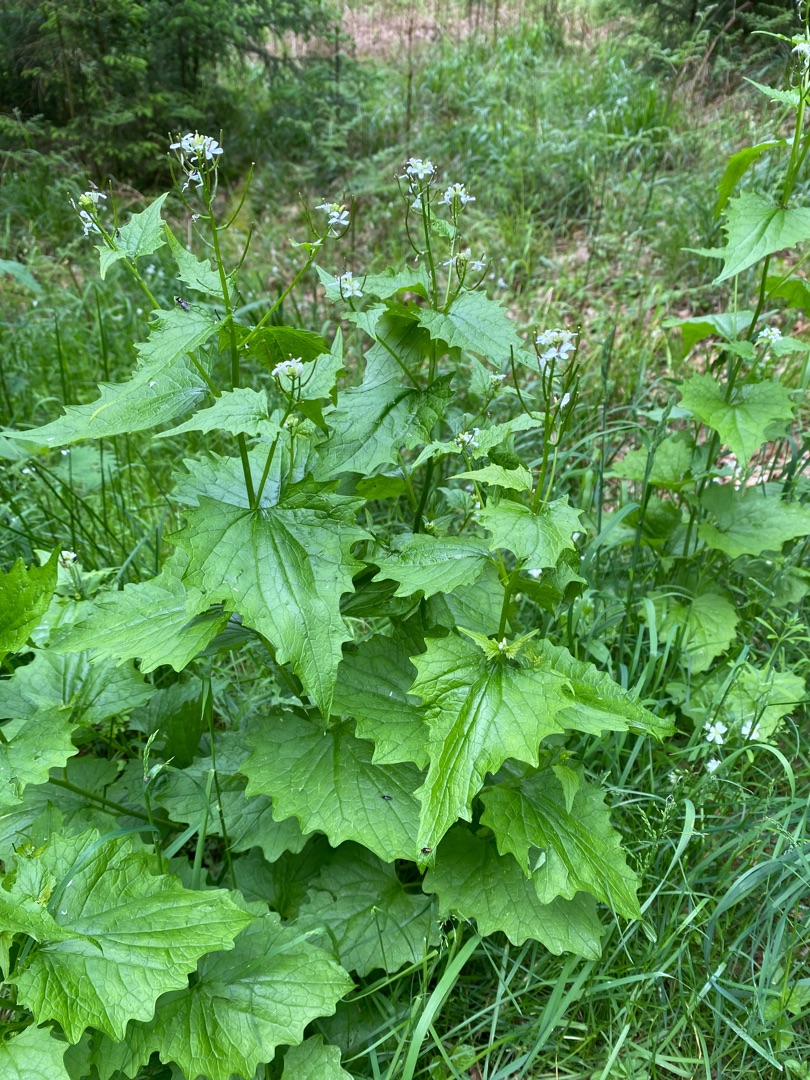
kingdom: Plantae
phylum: Tracheophyta
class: Magnoliopsida
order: Brassicales
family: Brassicaceae
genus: Alliaria
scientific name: Alliaria petiolata
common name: Løgkarse
